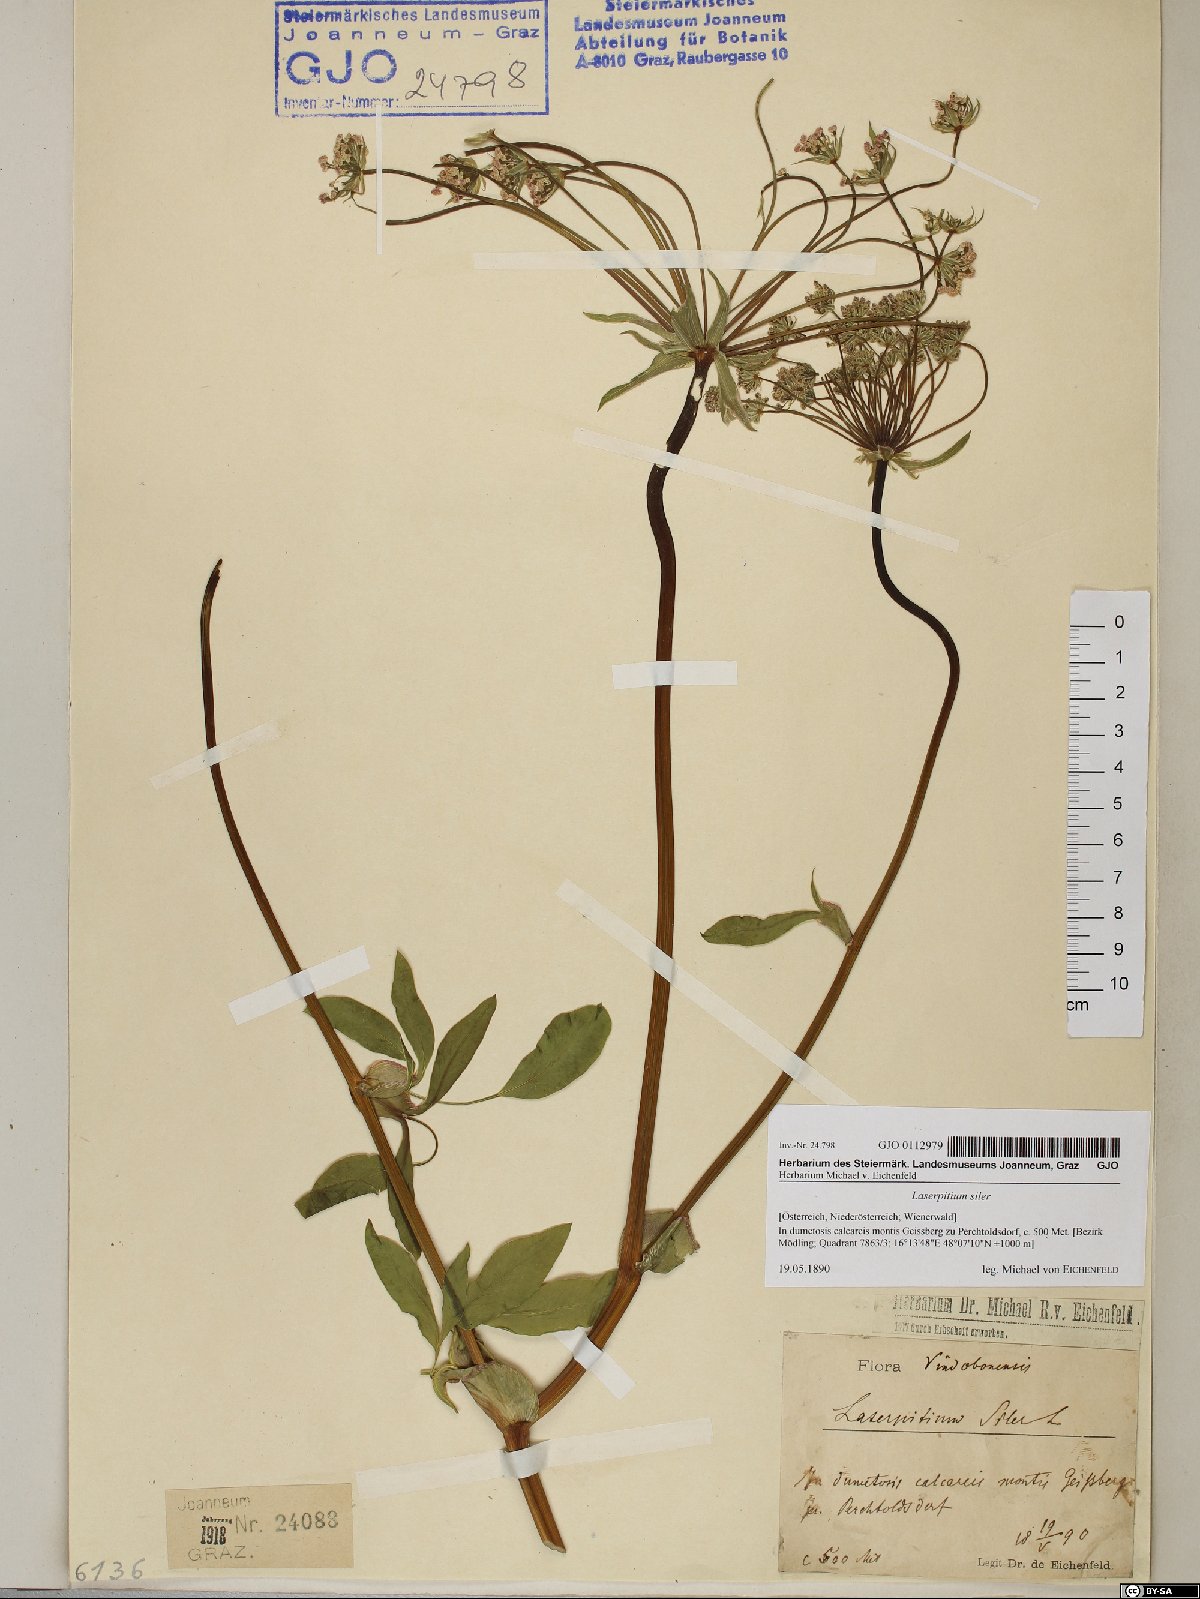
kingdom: Plantae
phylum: Tracheophyta
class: Magnoliopsida
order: Apiales
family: Apiaceae
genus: Siler
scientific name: Siler montanum
